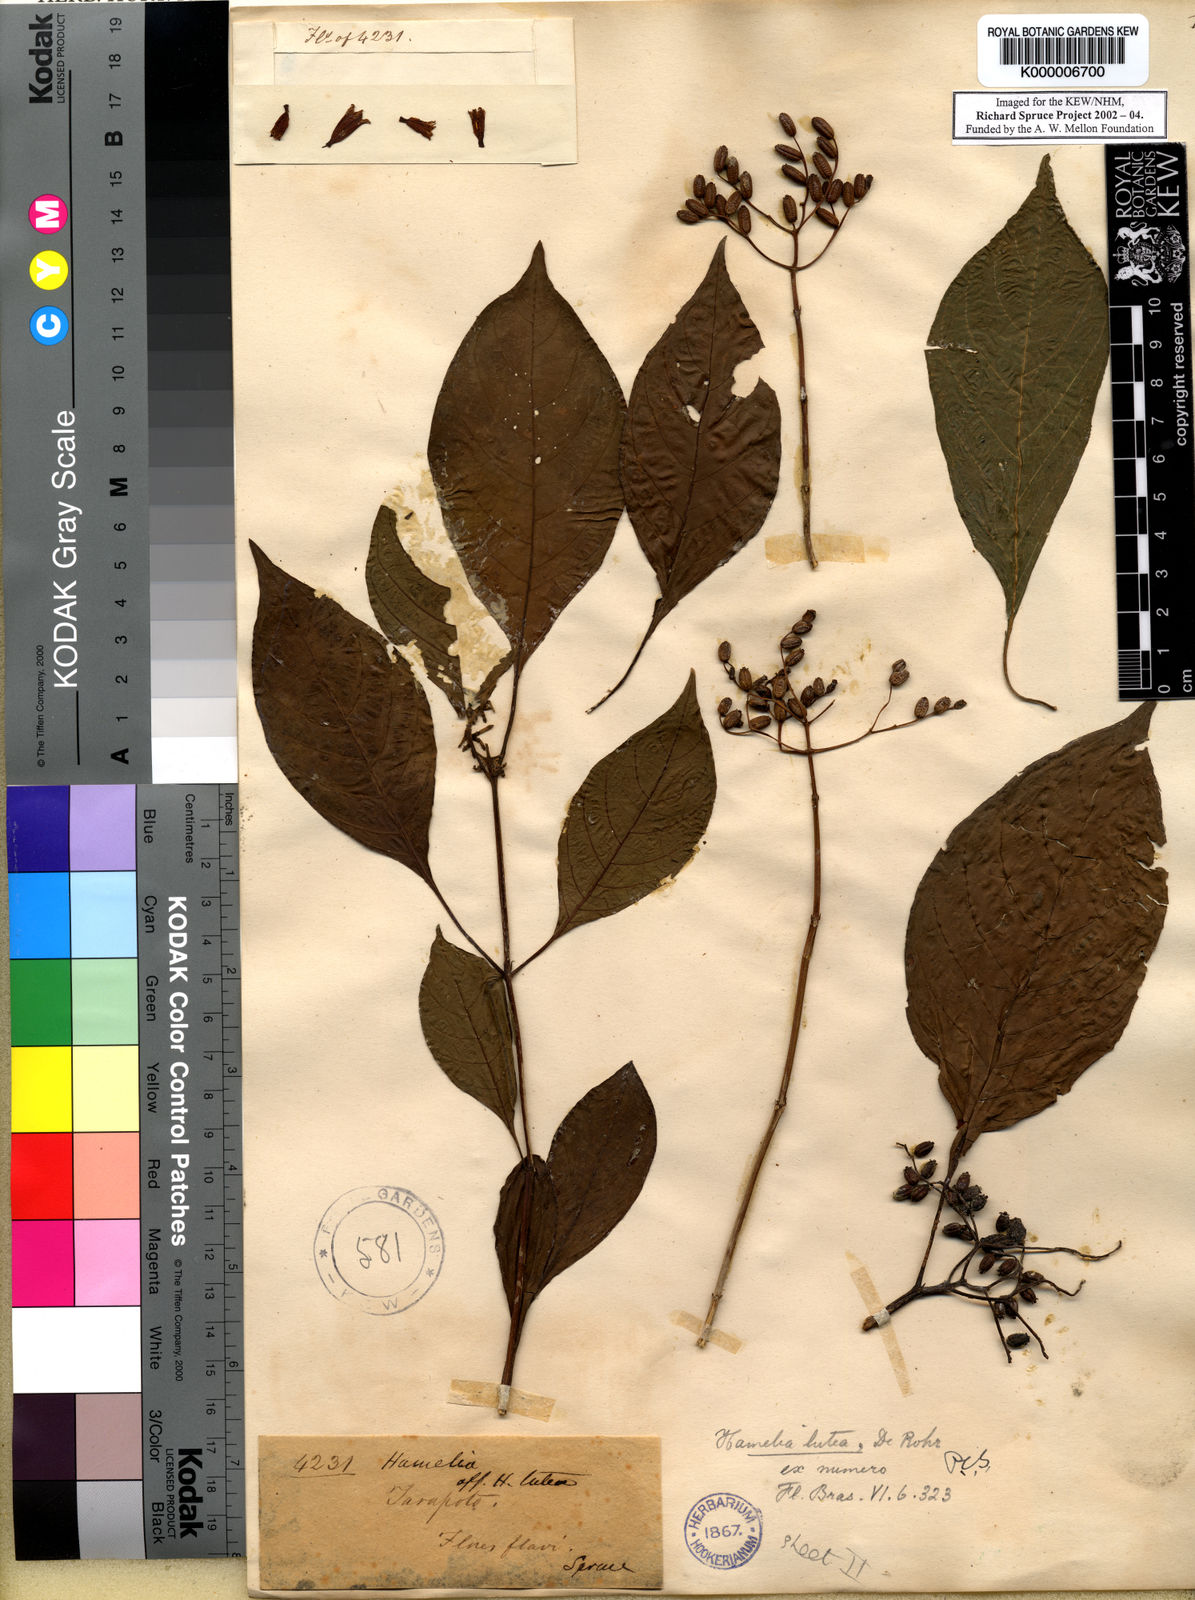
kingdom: Plantae
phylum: Tracheophyta
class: Magnoliopsida
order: Gentianales
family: Rubiaceae
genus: Hamelia
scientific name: Hamelia axillaris
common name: Balsamillo
